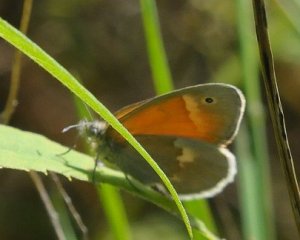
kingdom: Animalia
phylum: Arthropoda
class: Insecta
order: Lepidoptera
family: Nymphalidae
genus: Coenonympha
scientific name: Coenonympha tullia
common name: Large Heath
